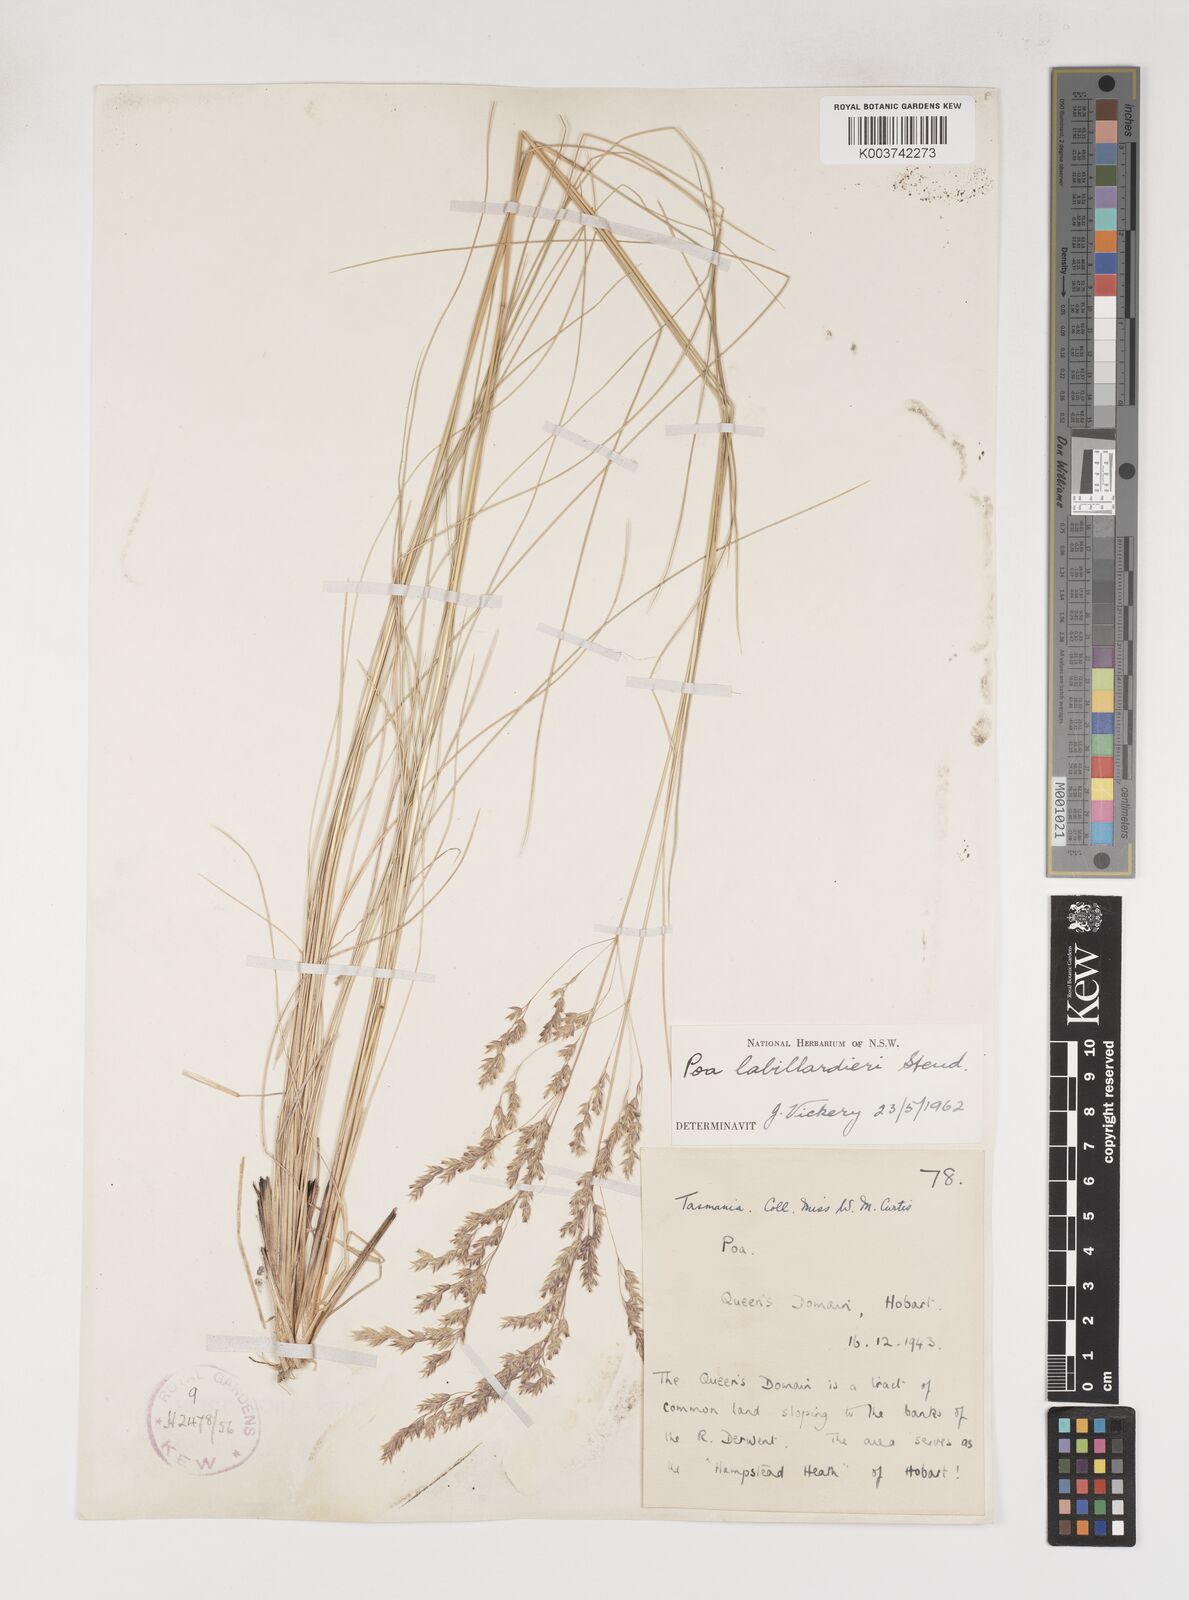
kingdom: Plantae
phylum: Tracheophyta
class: Liliopsida
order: Poales
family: Poaceae
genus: Poa
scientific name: Poa labillardierei
